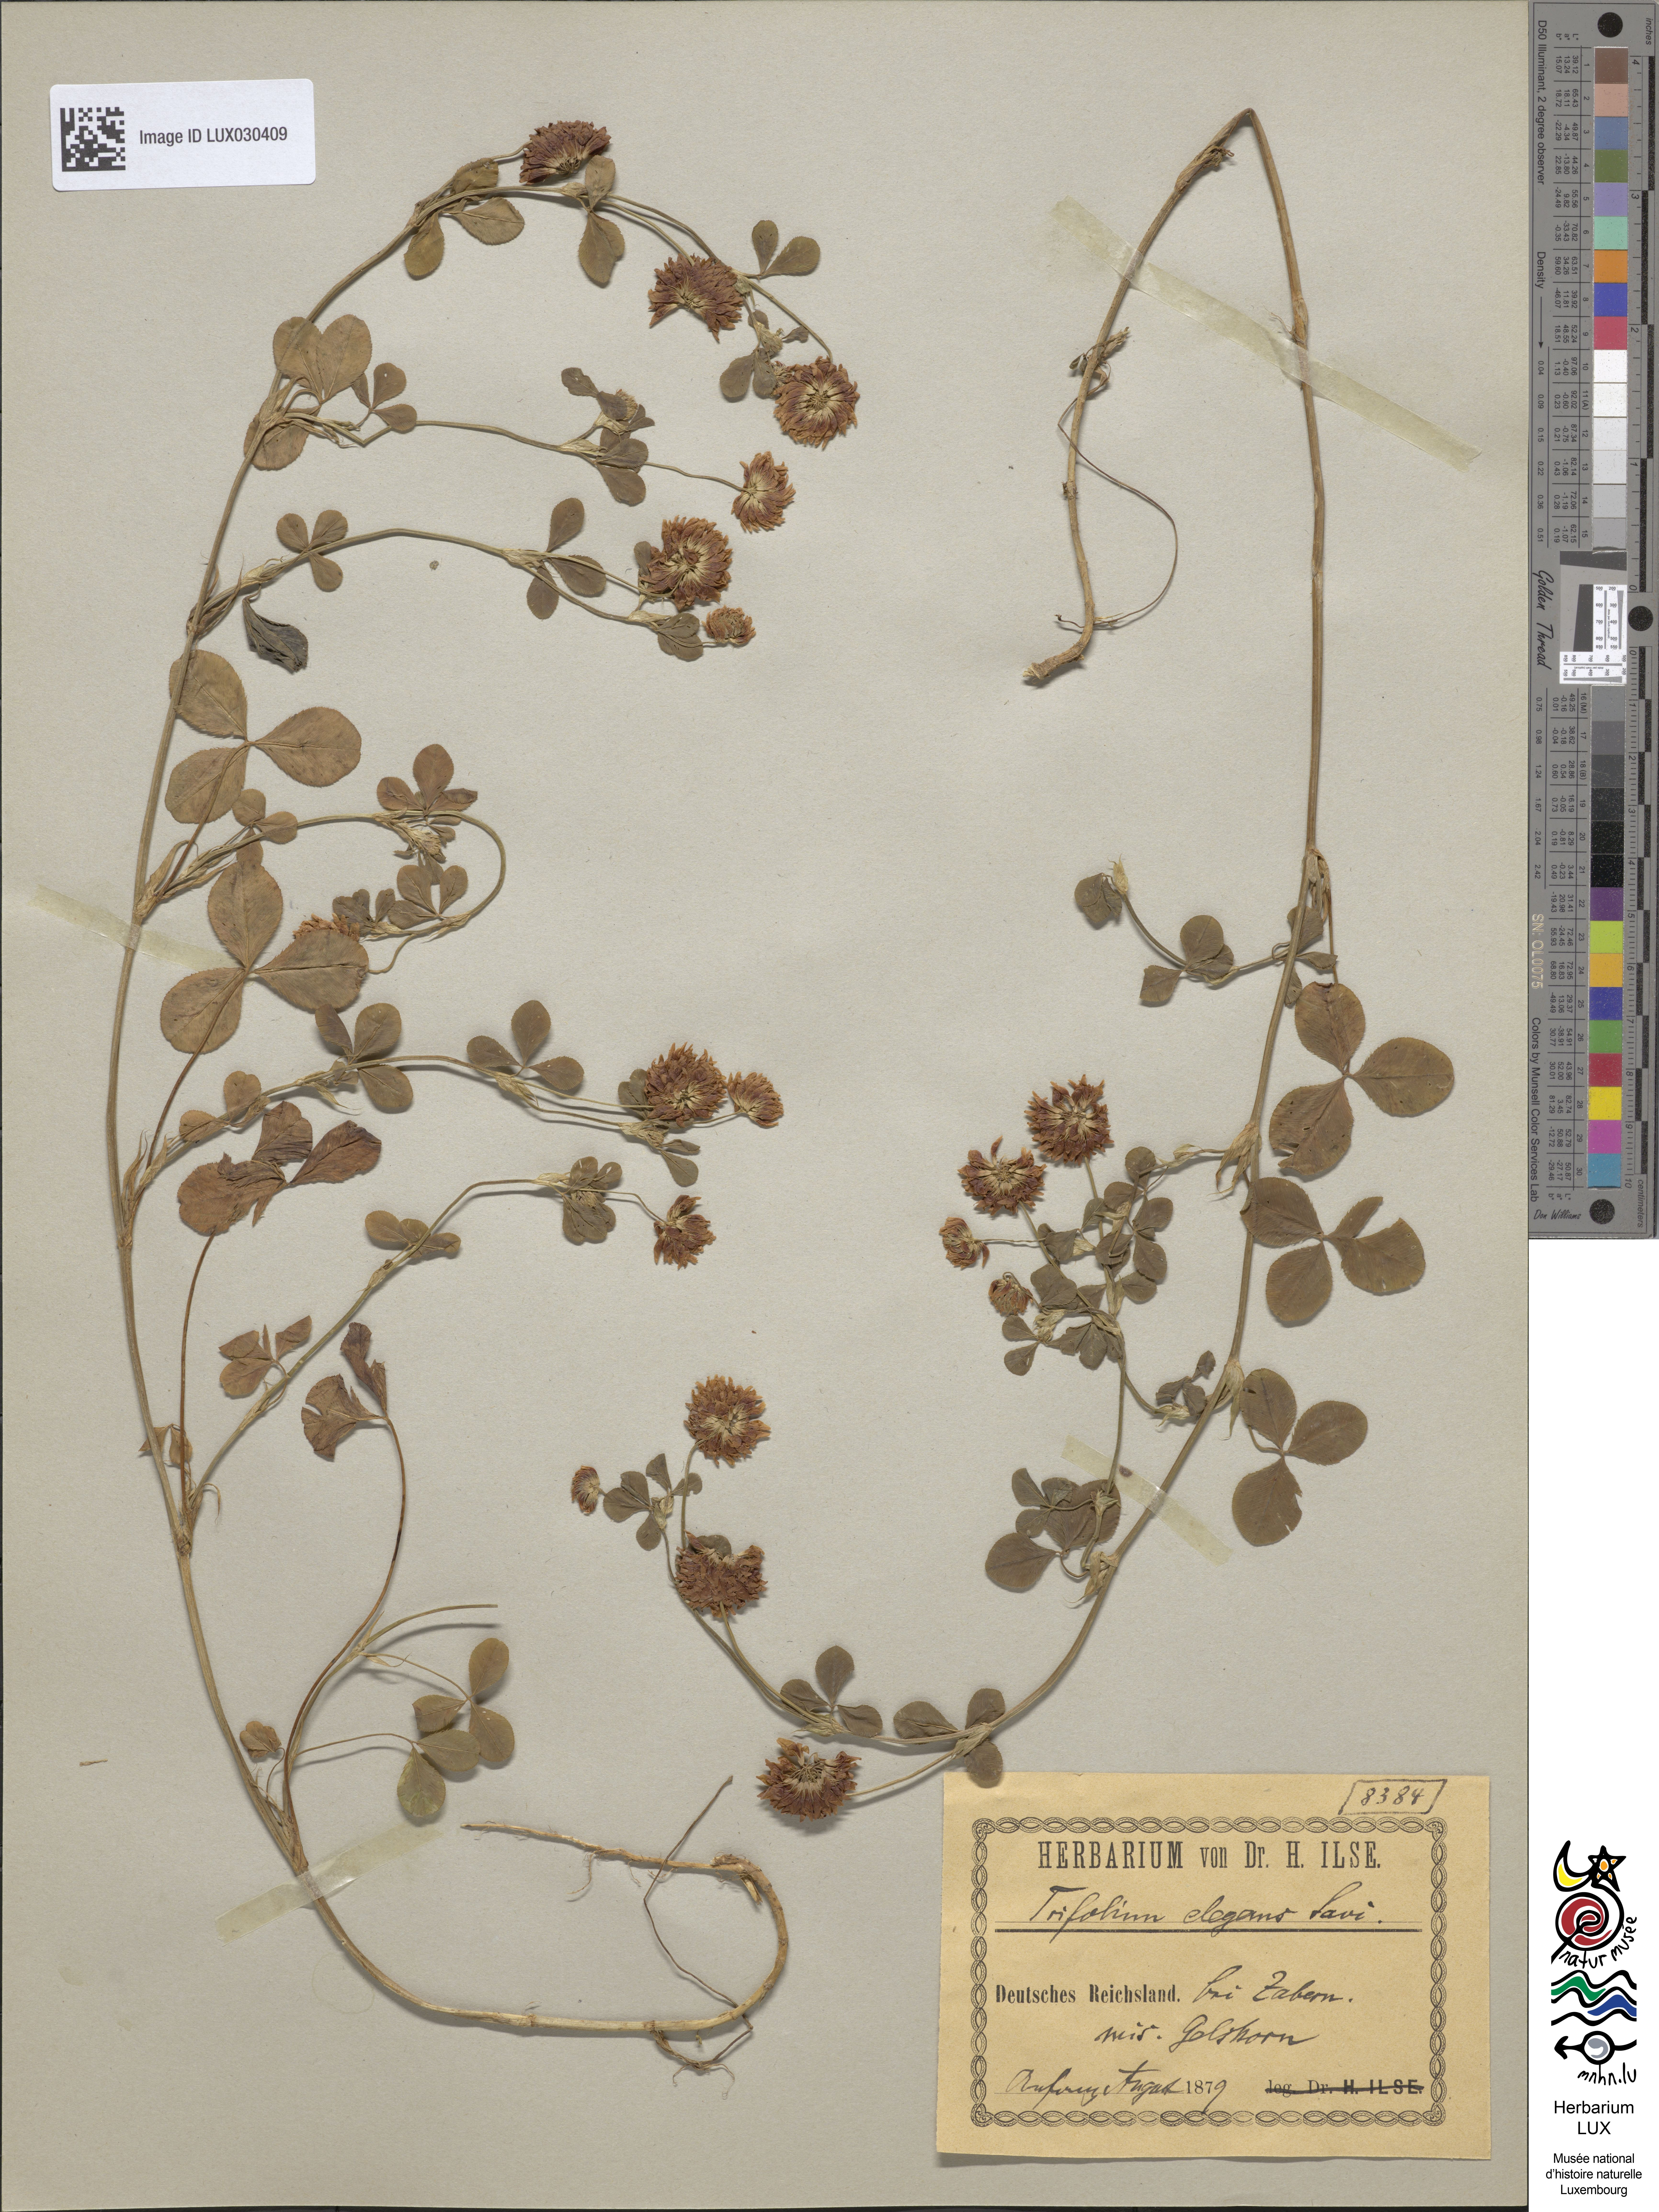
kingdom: Plantae
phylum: Tracheophyta
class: Magnoliopsida
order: Fabales
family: Fabaceae
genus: Trifolium
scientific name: Trifolium hybridum
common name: Alsike clover
